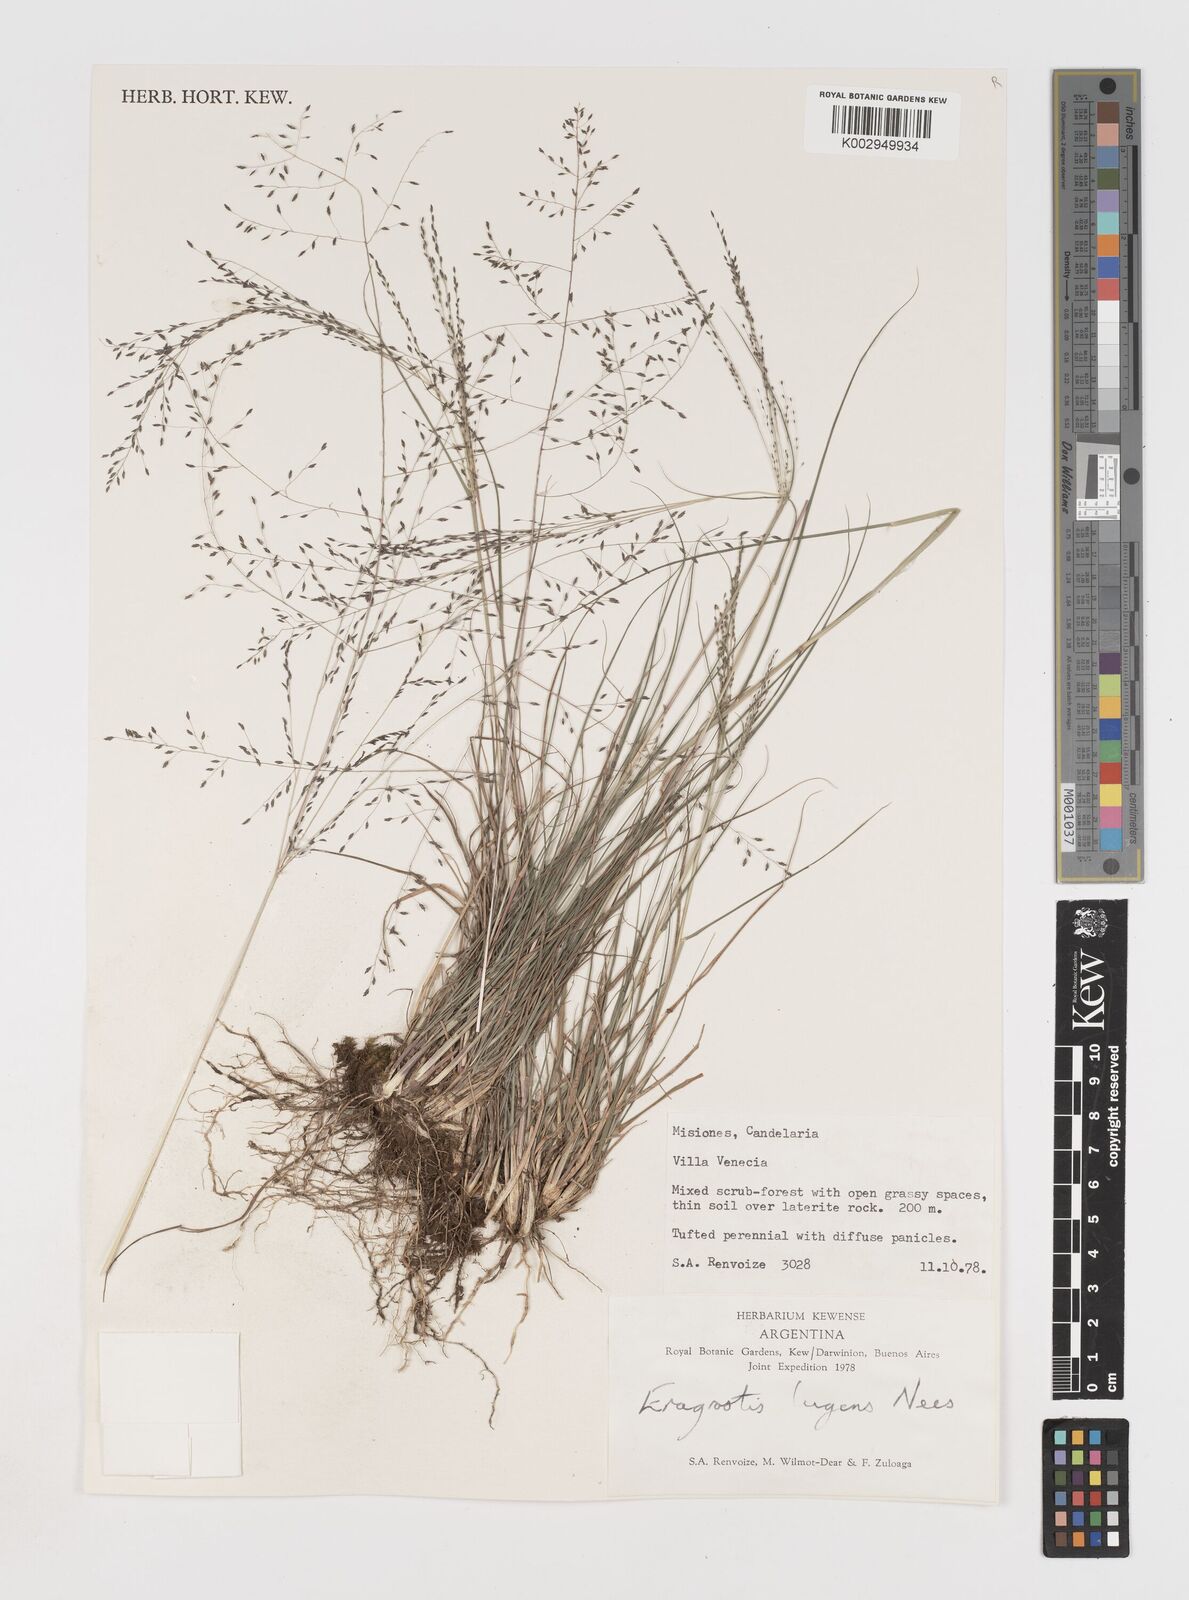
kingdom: Plantae
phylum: Tracheophyta
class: Liliopsida
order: Poales
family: Poaceae
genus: Eragrostis
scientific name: Eragrostis lugens
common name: Mourning love grass
